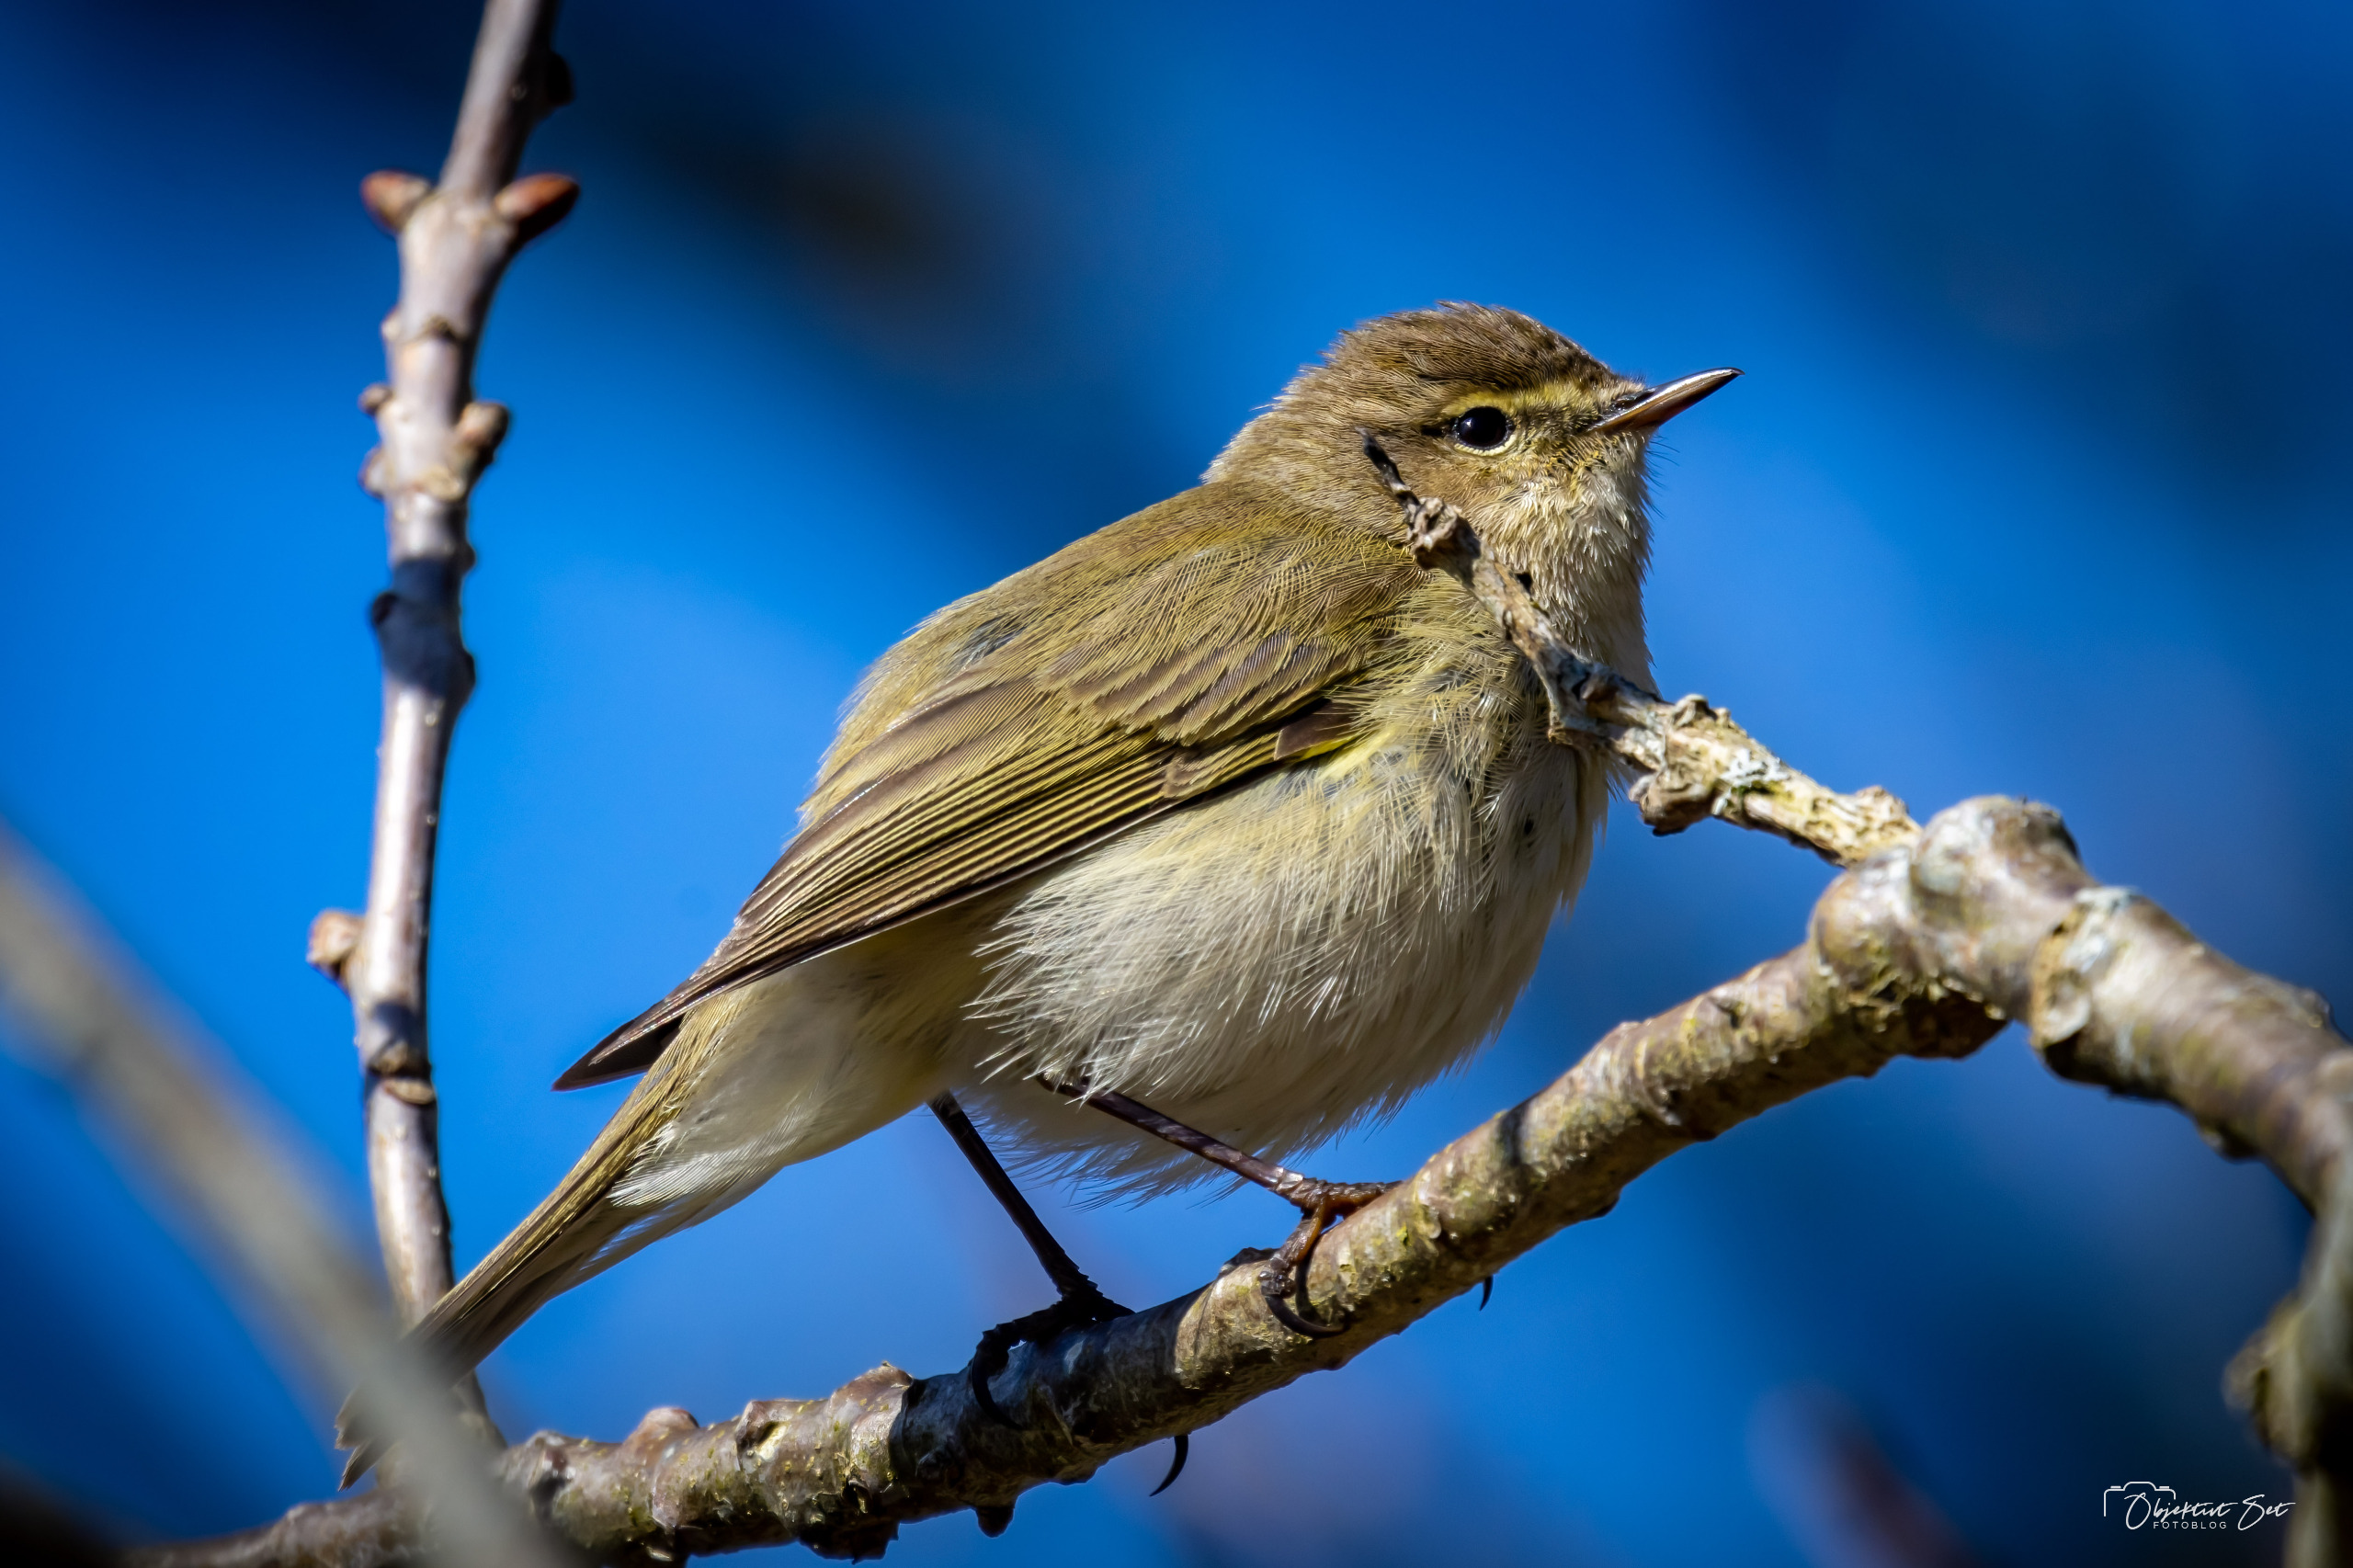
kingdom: Animalia
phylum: Chordata
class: Aves
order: Passeriformes
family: Phylloscopidae
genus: Phylloscopus
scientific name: Phylloscopus collybita
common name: Gransanger
